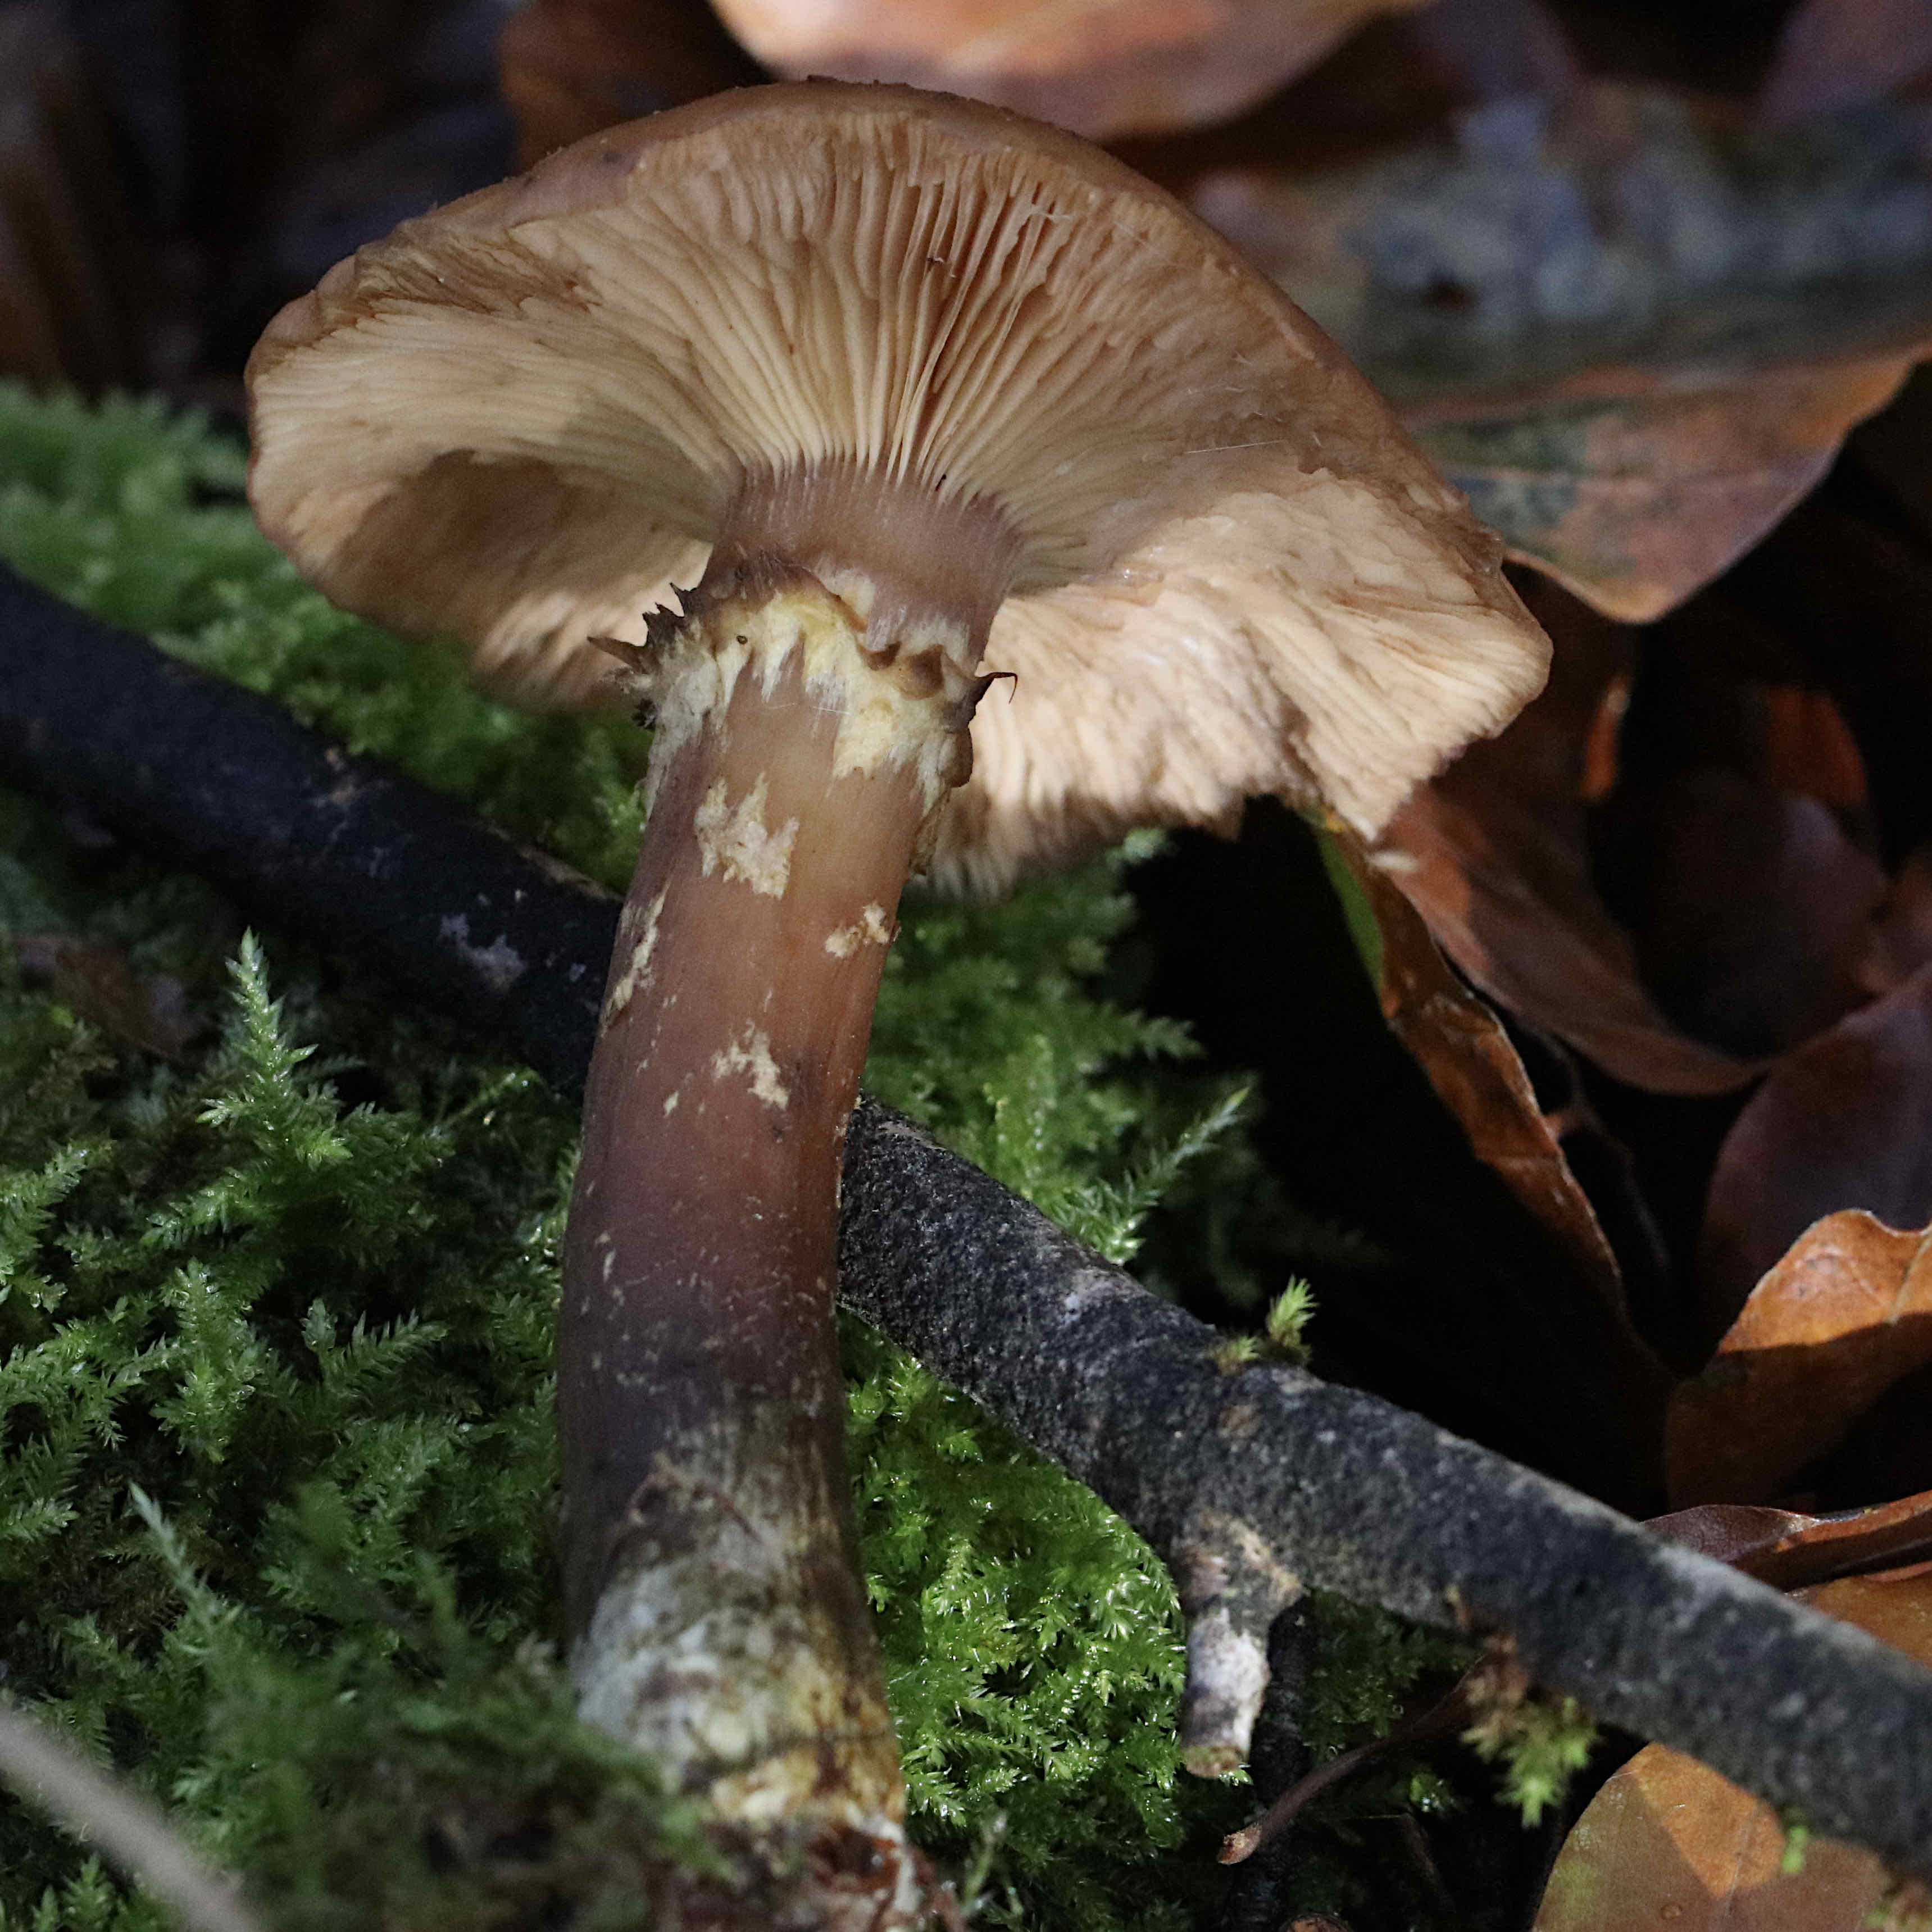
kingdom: Fungi
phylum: Basidiomycota
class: Agaricomycetes
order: Agaricales
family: Physalacriaceae
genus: Armillaria
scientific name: Armillaria lutea
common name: køllestokket honningsvamp
